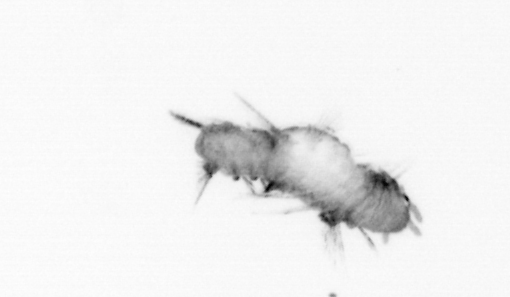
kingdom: Animalia
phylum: Annelida
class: Polychaeta
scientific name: Polychaeta
